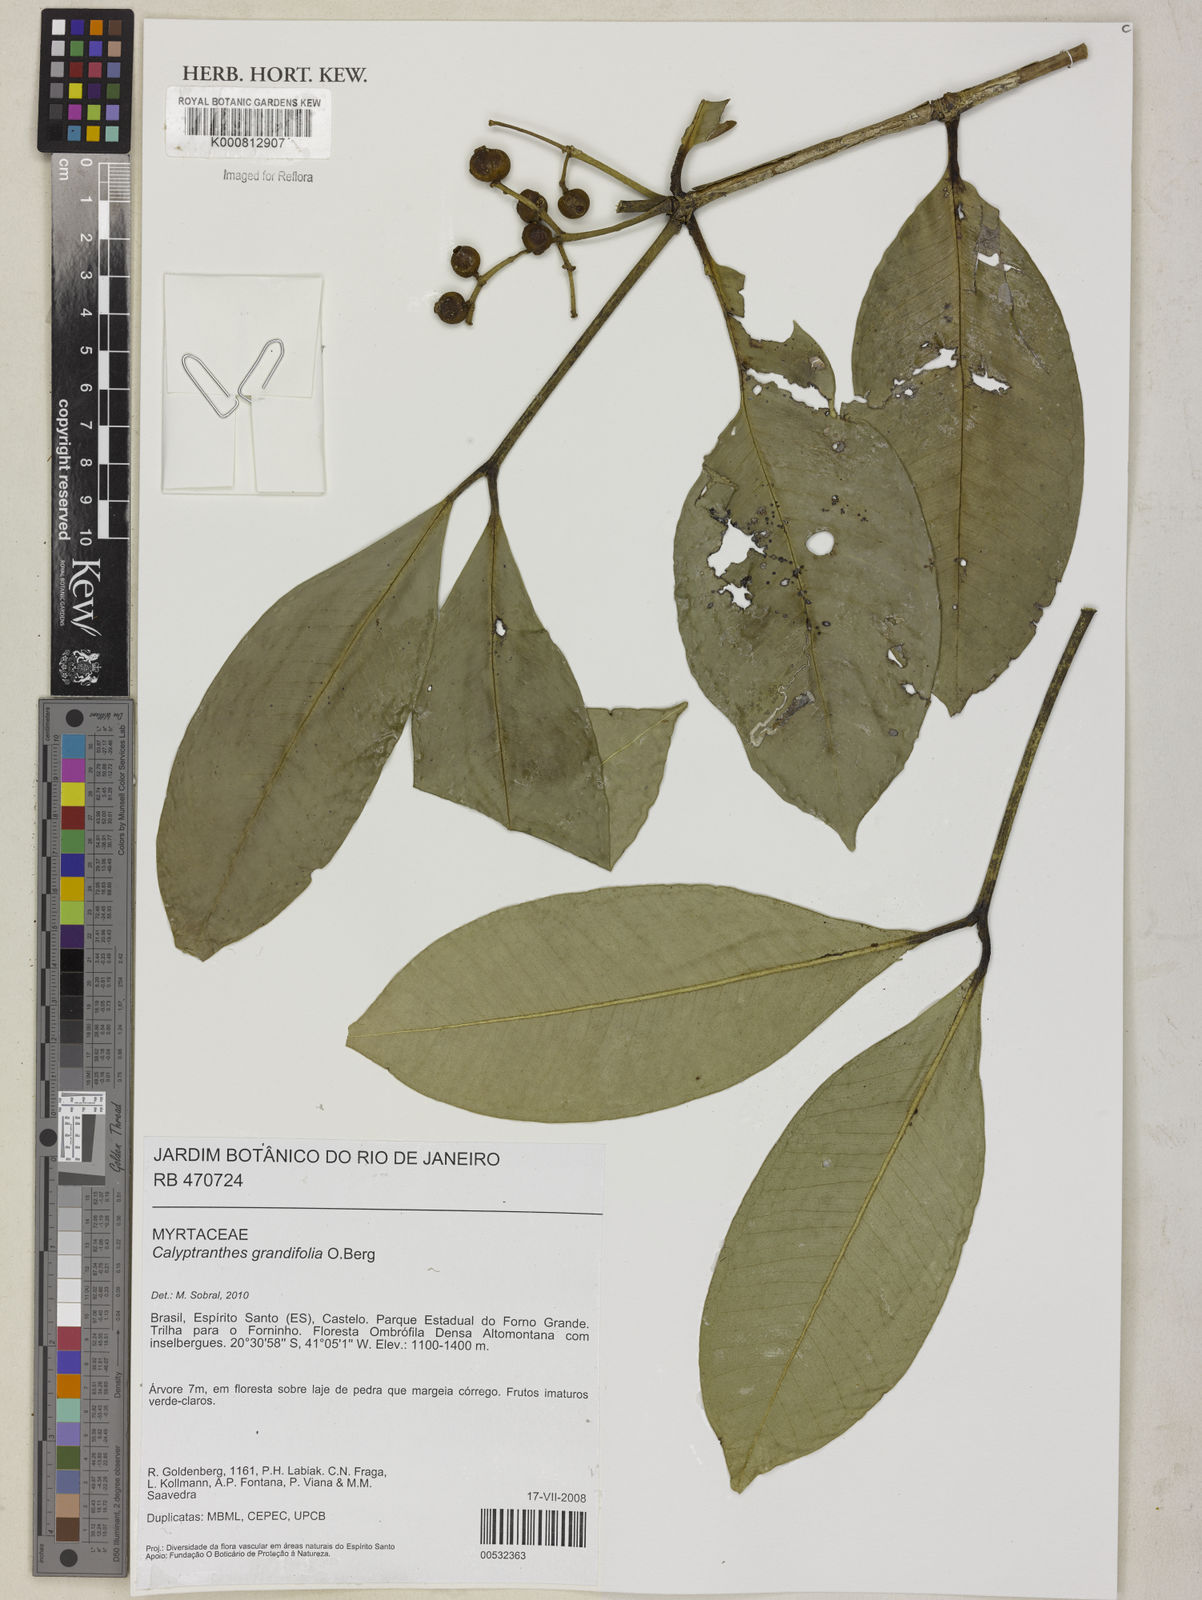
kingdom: Plantae
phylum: Tracheophyta
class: Magnoliopsida
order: Myrtales
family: Myrtaceae
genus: Calyptranthes
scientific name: Calyptranthes grandifolia
